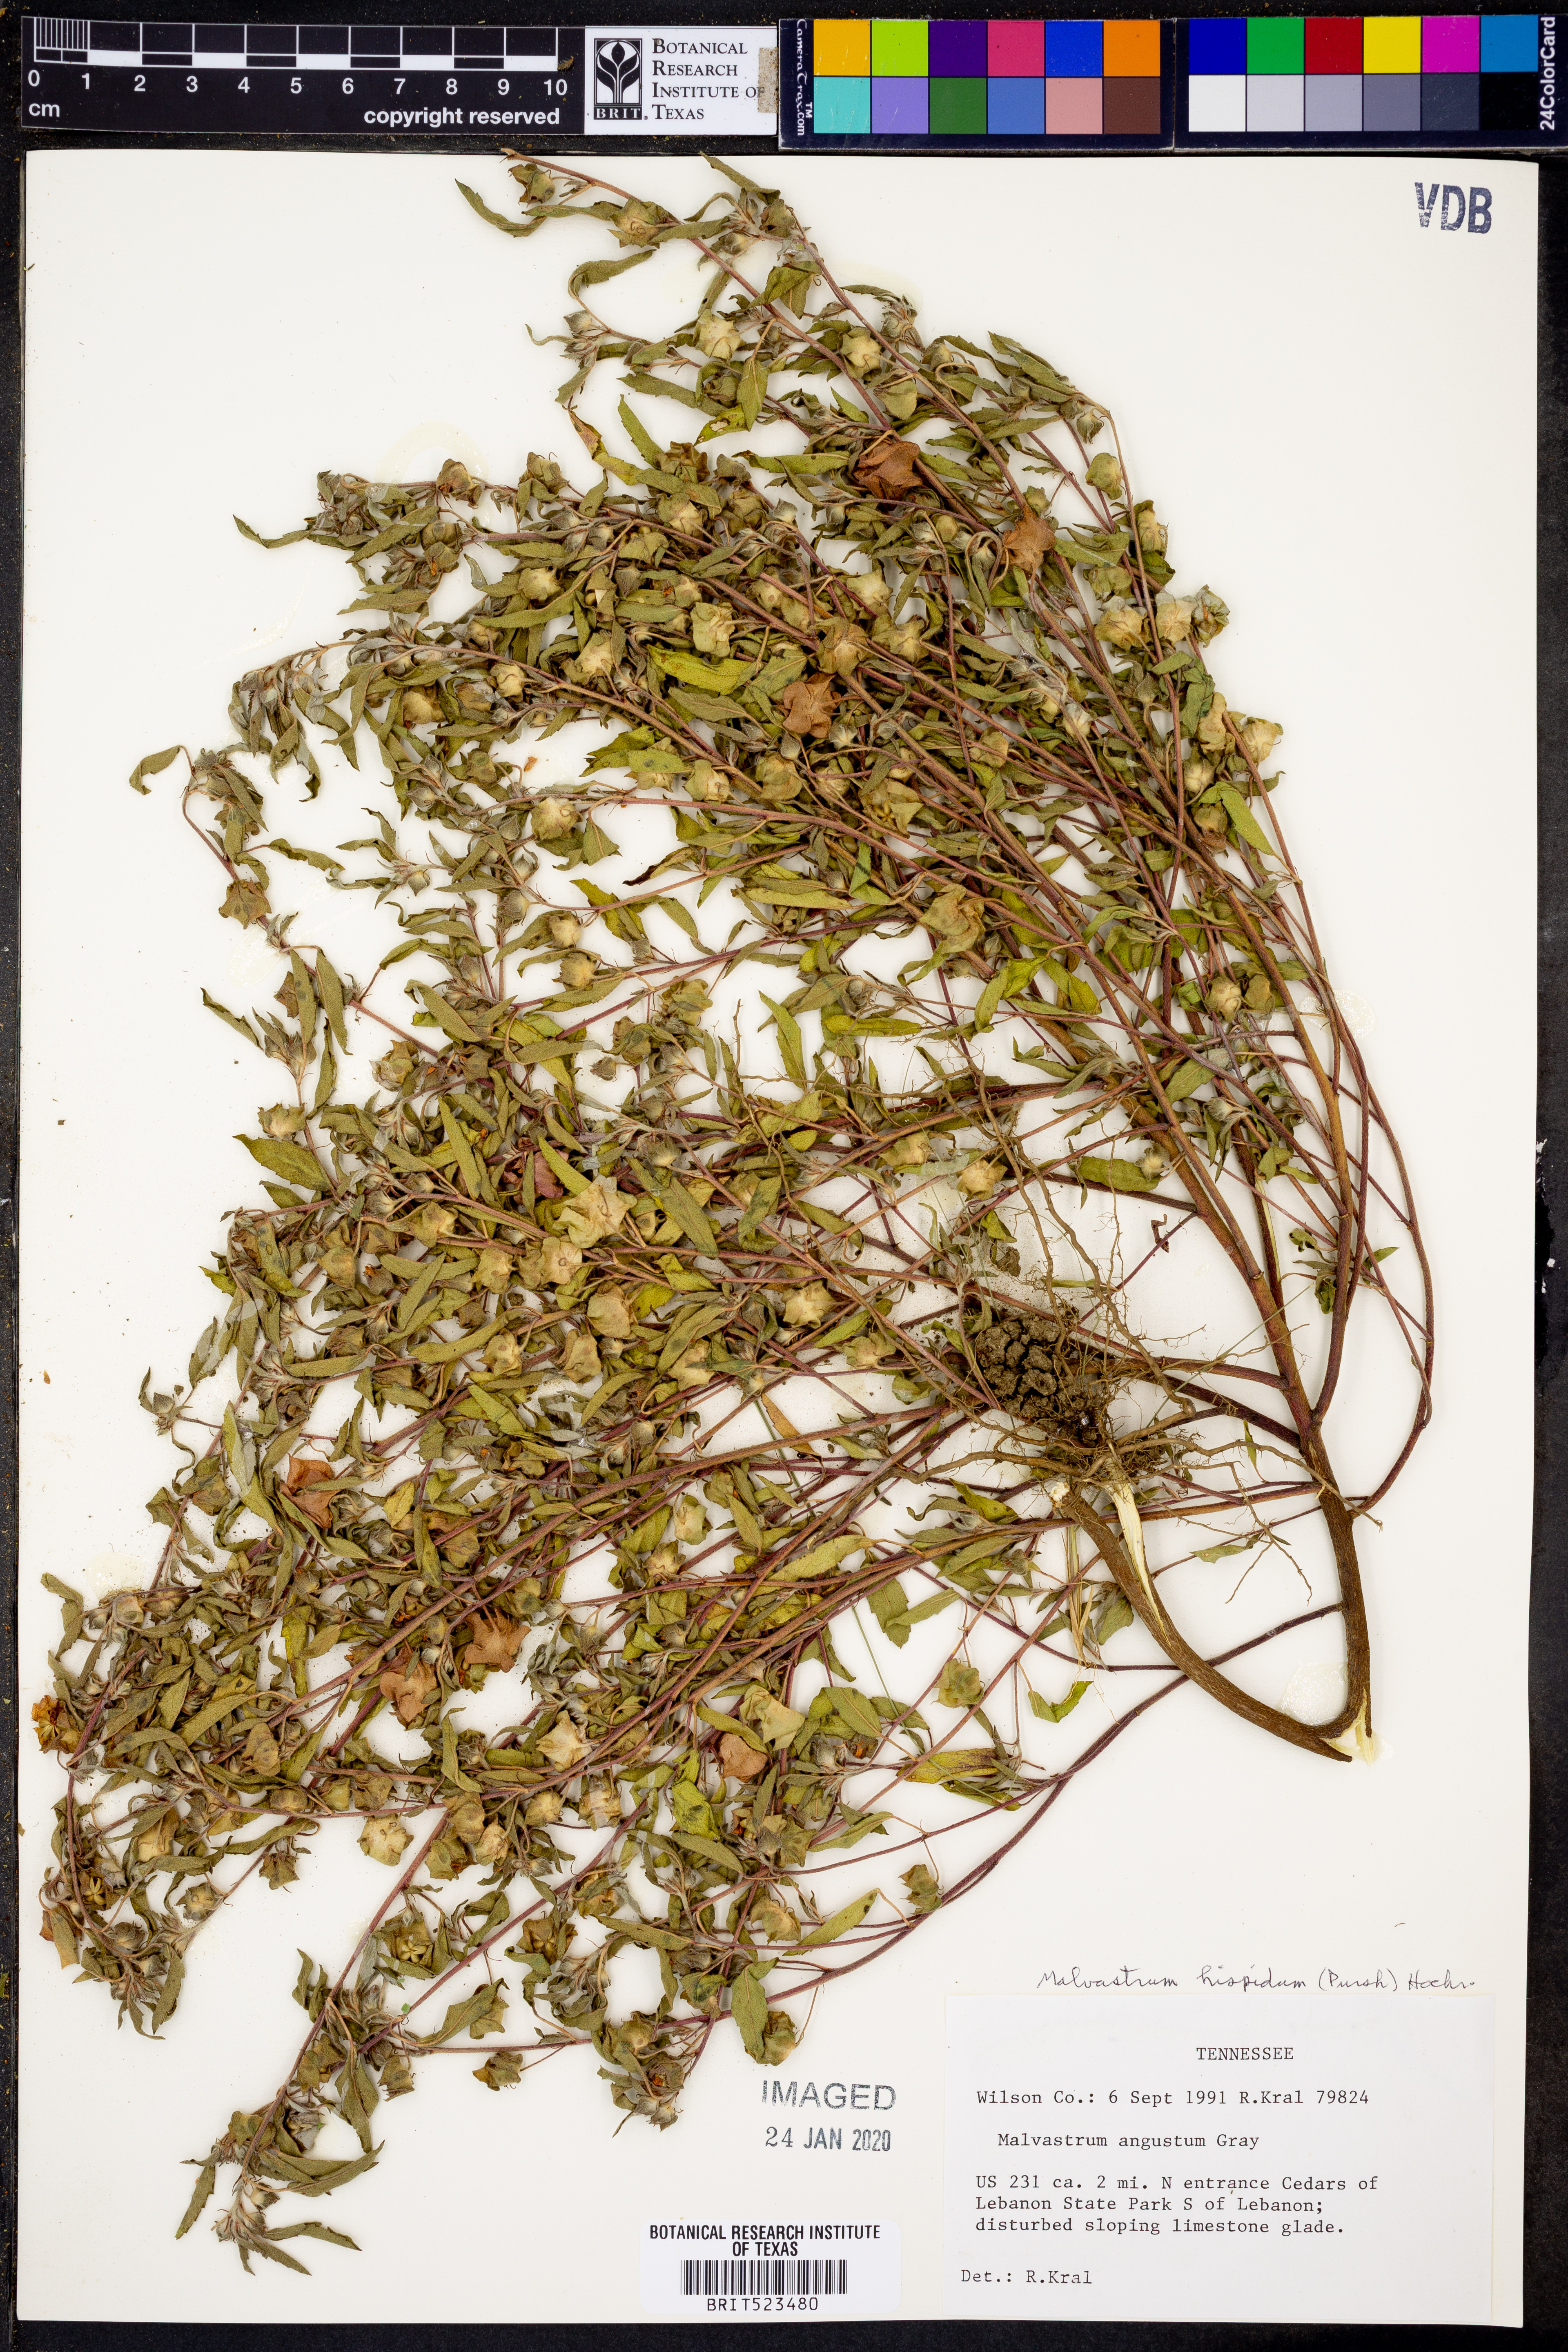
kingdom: Plantae
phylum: Tracheophyta
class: Magnoliopsida
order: Malvales
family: Malvaceae
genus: Malvastrum
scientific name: Malvastrum hispidum
